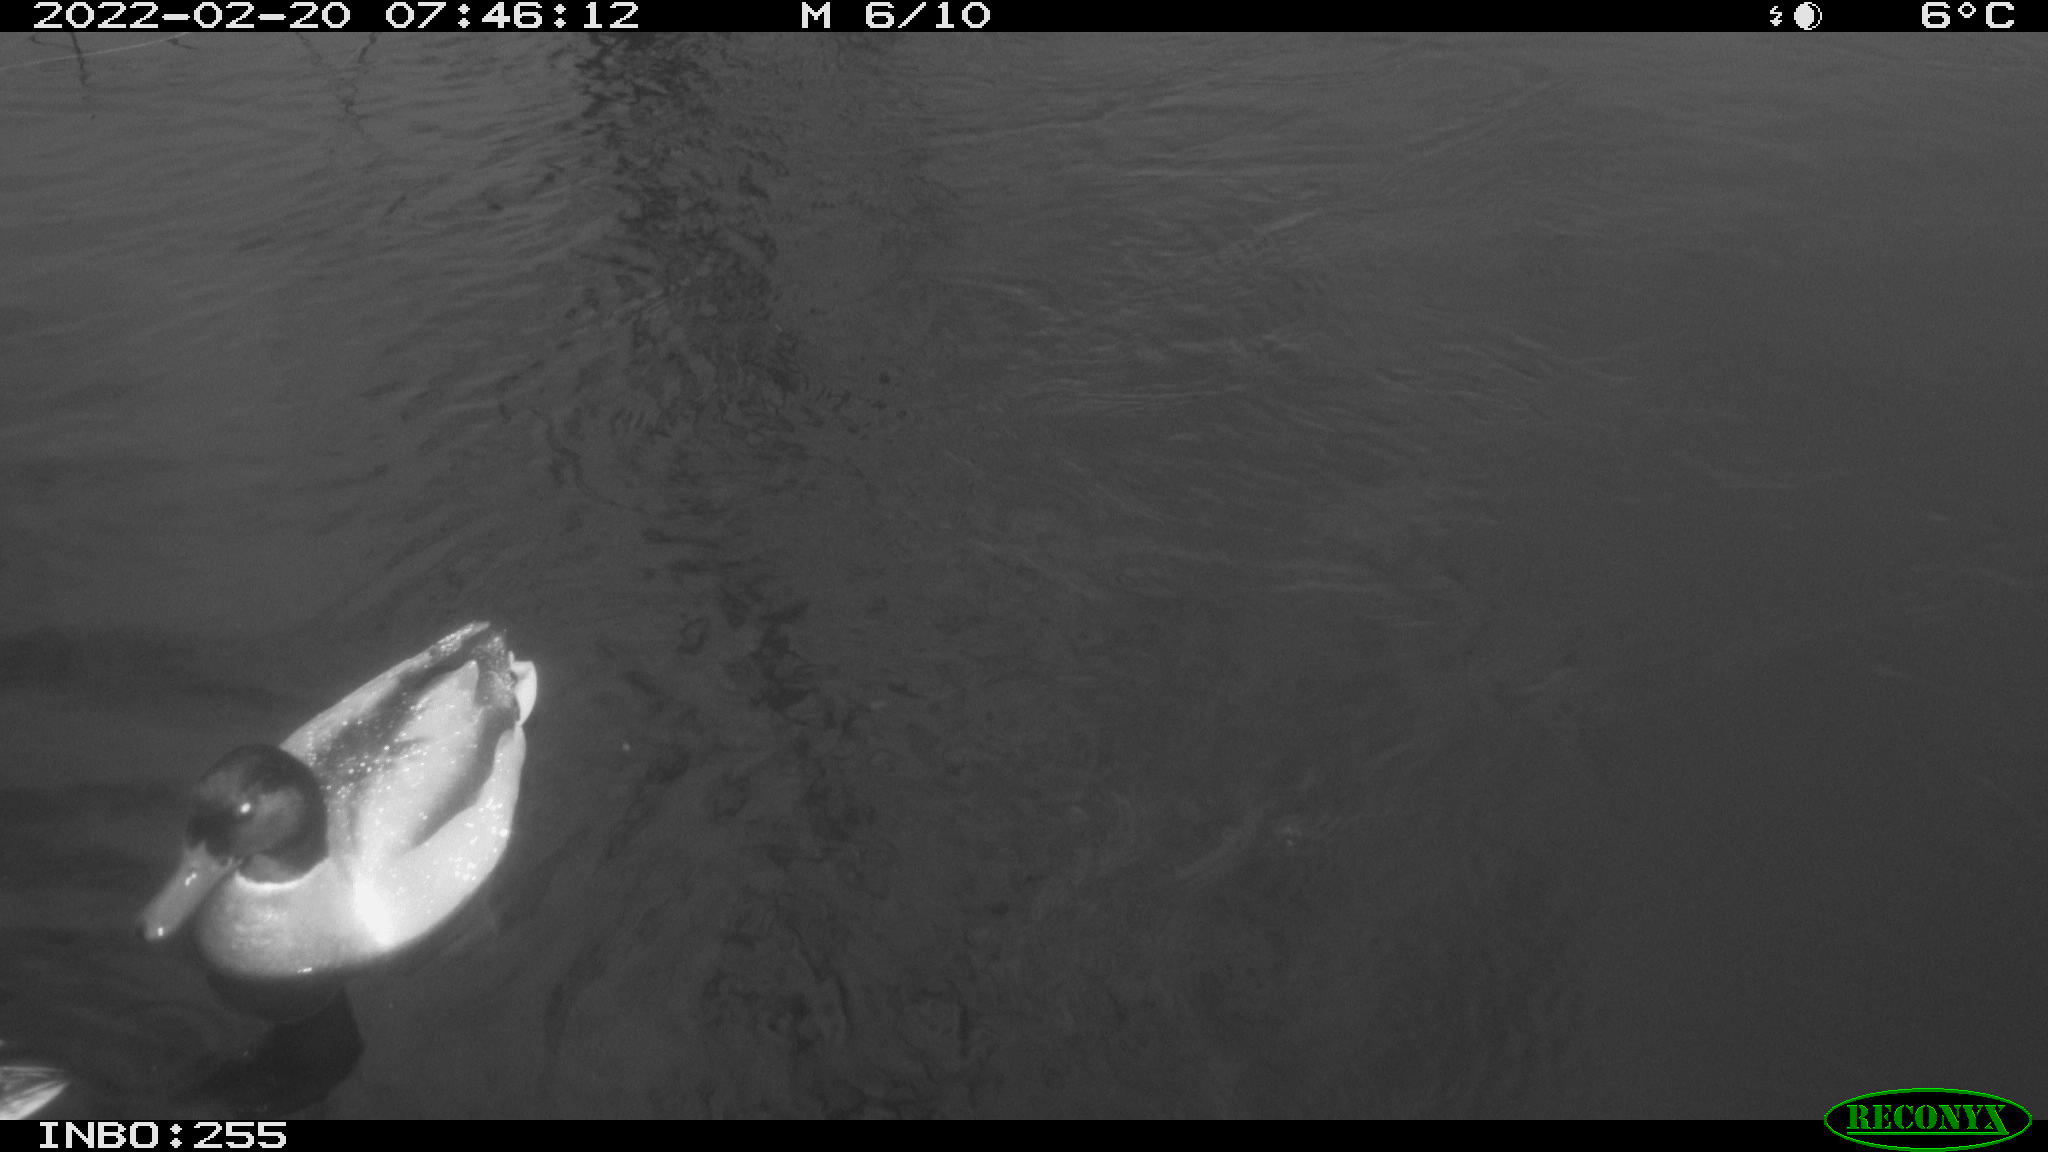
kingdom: Animalia
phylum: Chordata
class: Aves
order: Anseriformes
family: Anatidae
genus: Anas
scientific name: Anas platyrhynchos
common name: Mallard
